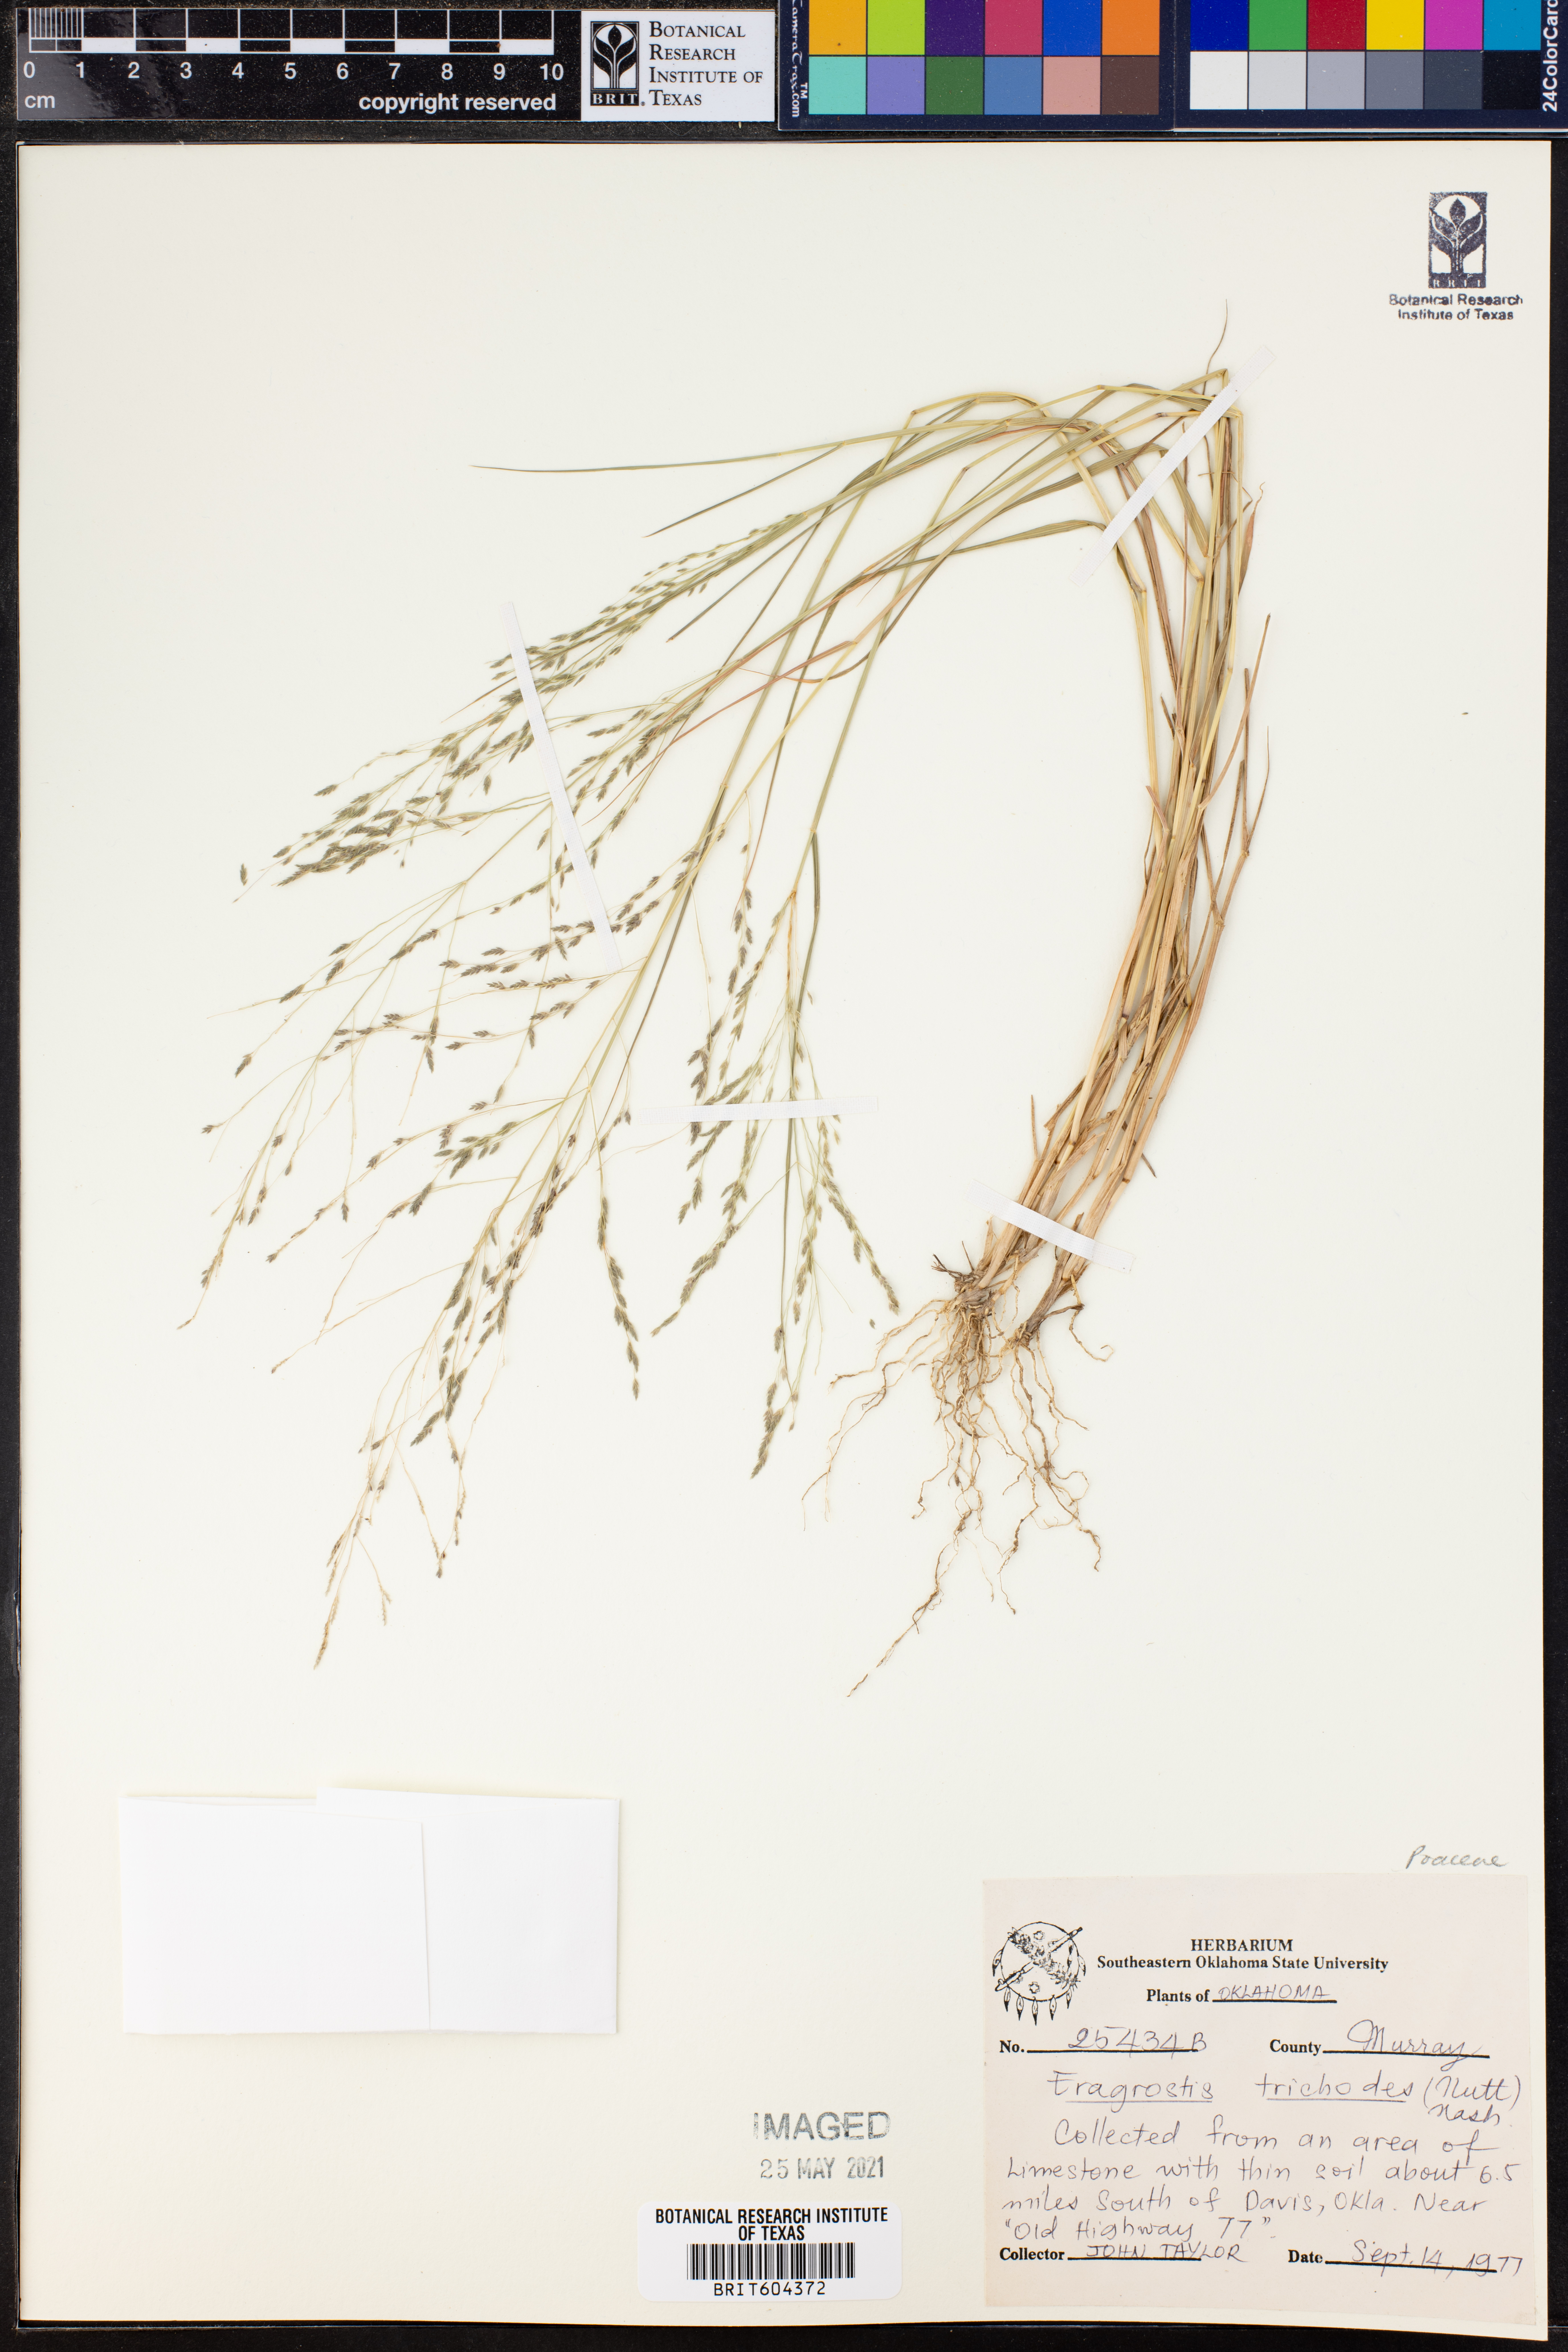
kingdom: Plantae
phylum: Tracheophyta
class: Liliopsida
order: Poales
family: Poaceae
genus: Eragrostis
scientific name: Eragrostis trichodes
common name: Sand love grass
